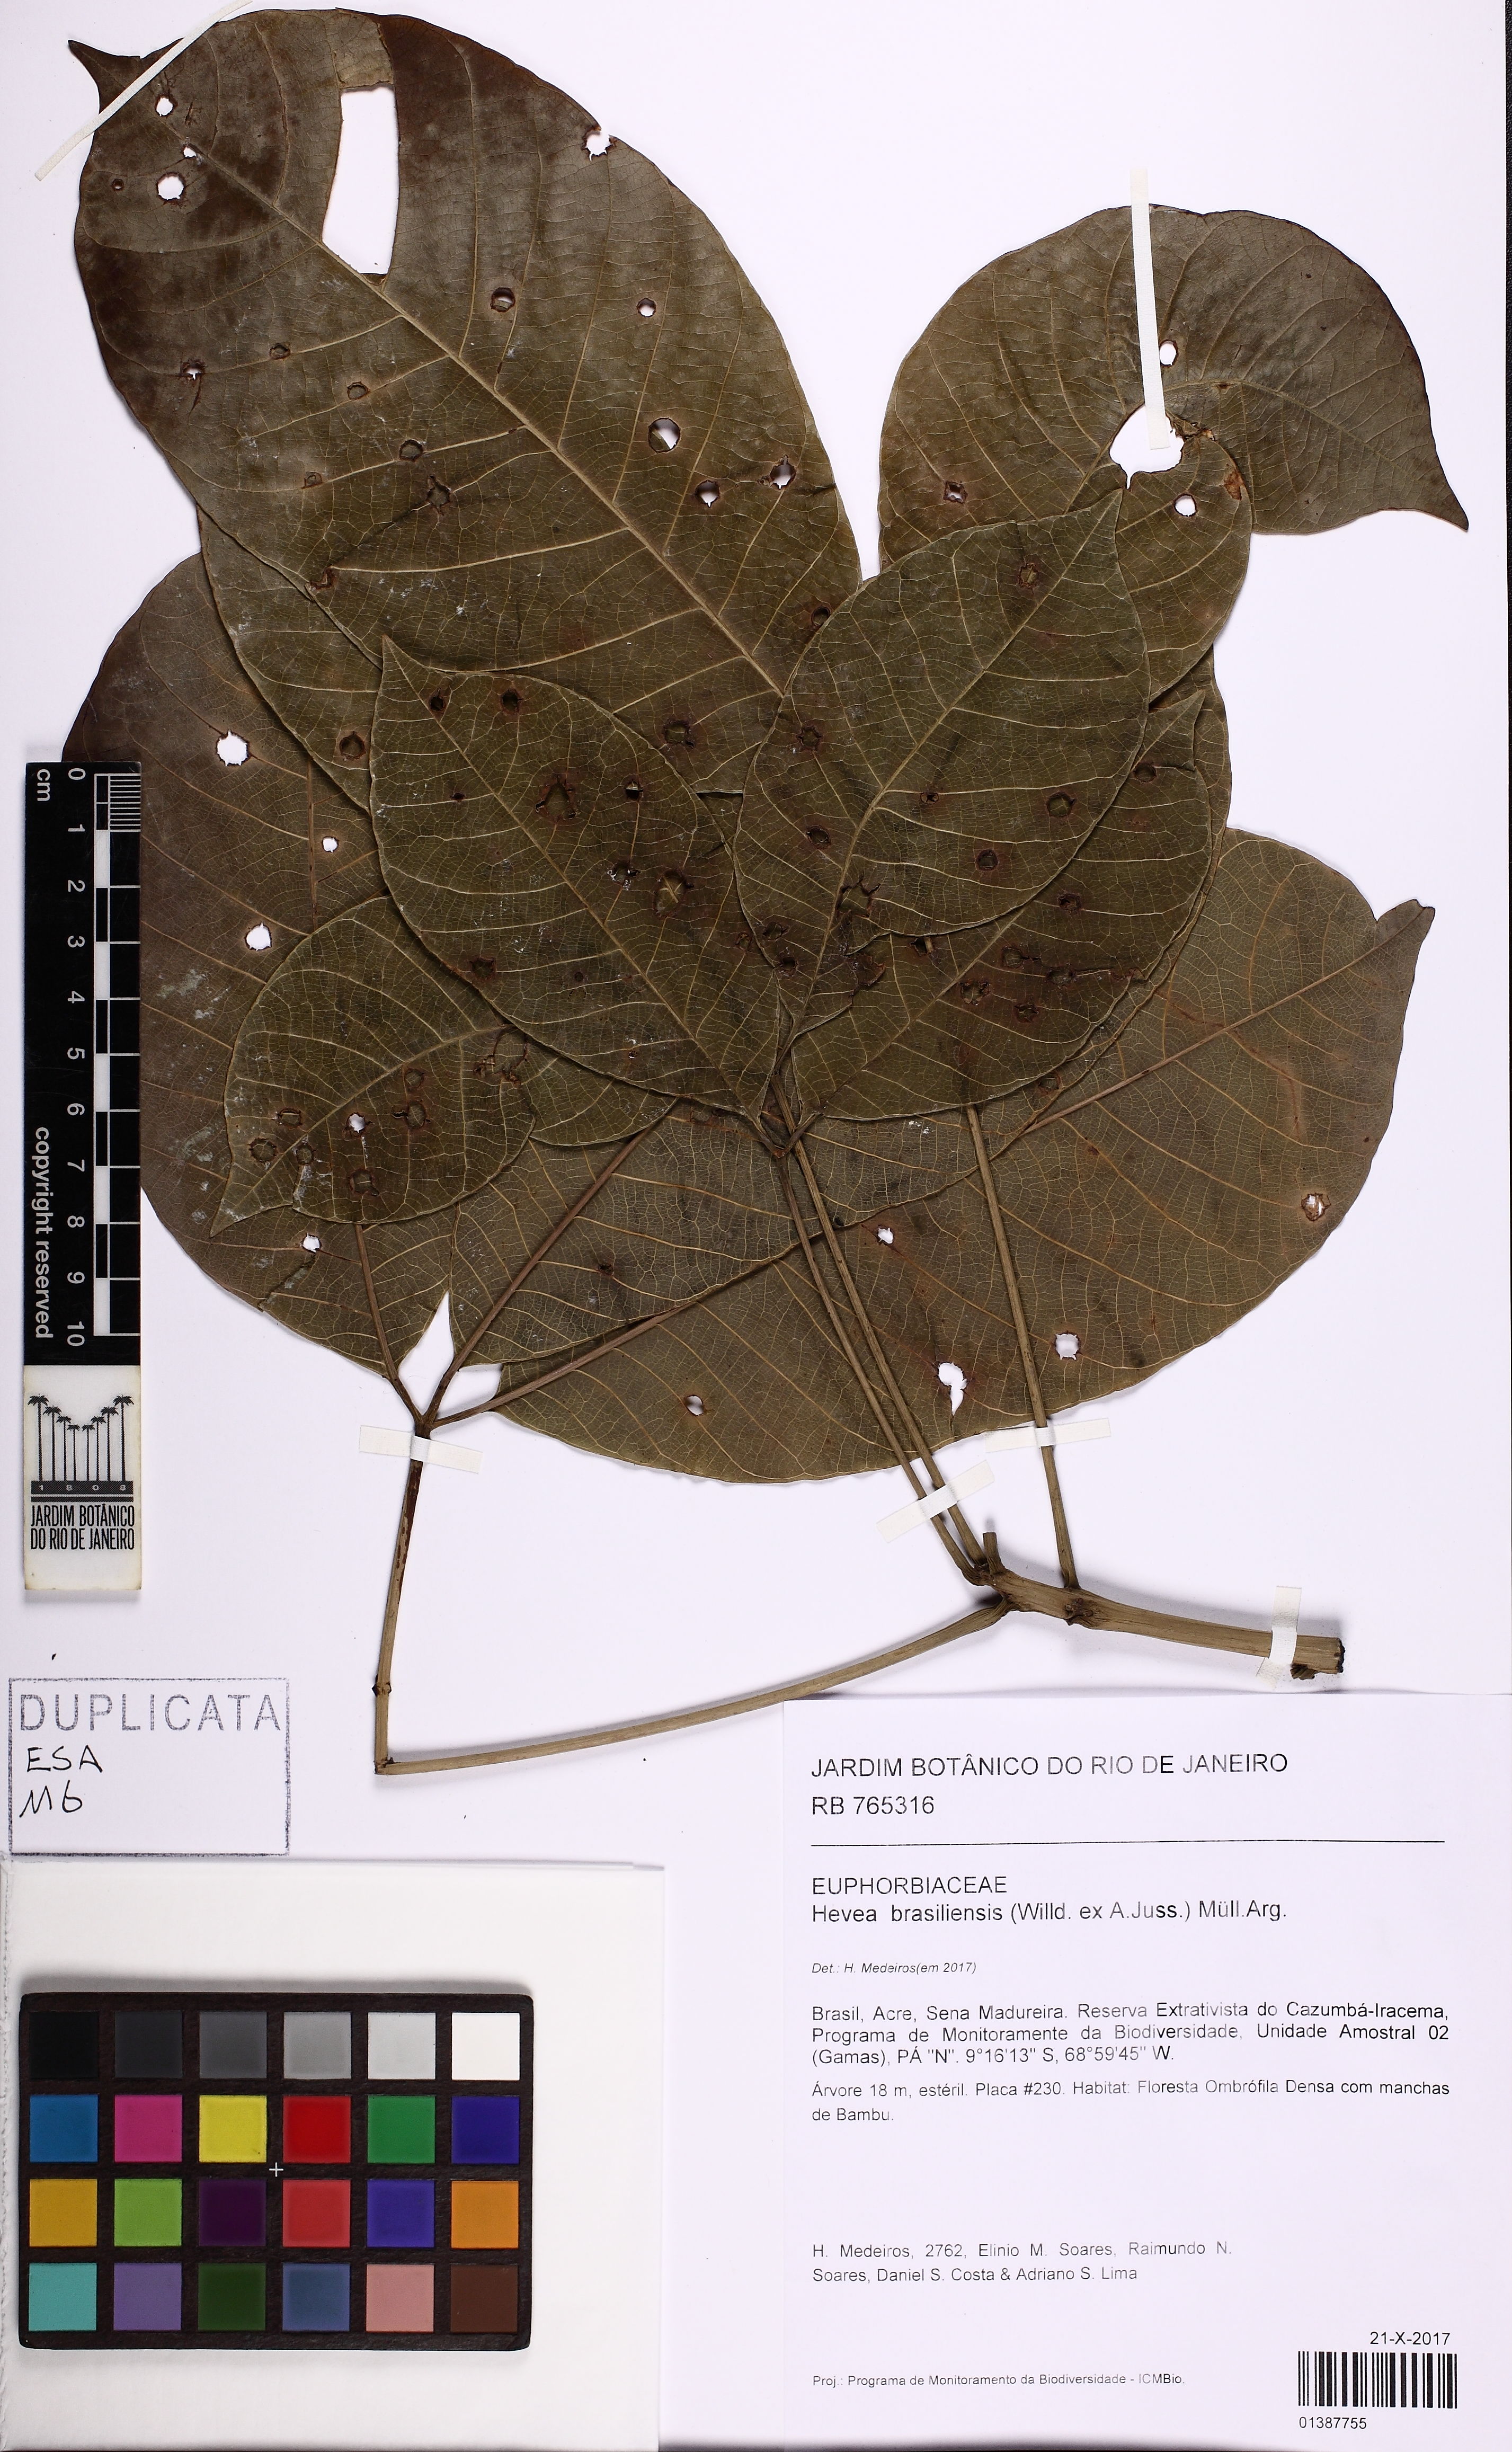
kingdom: Plantae
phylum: Tracheophyta
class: Magnoliopsida
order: Malpighiales
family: Euphorbiaceae
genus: Hevea
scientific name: Hevea brasiliensis
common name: Natural rubber
